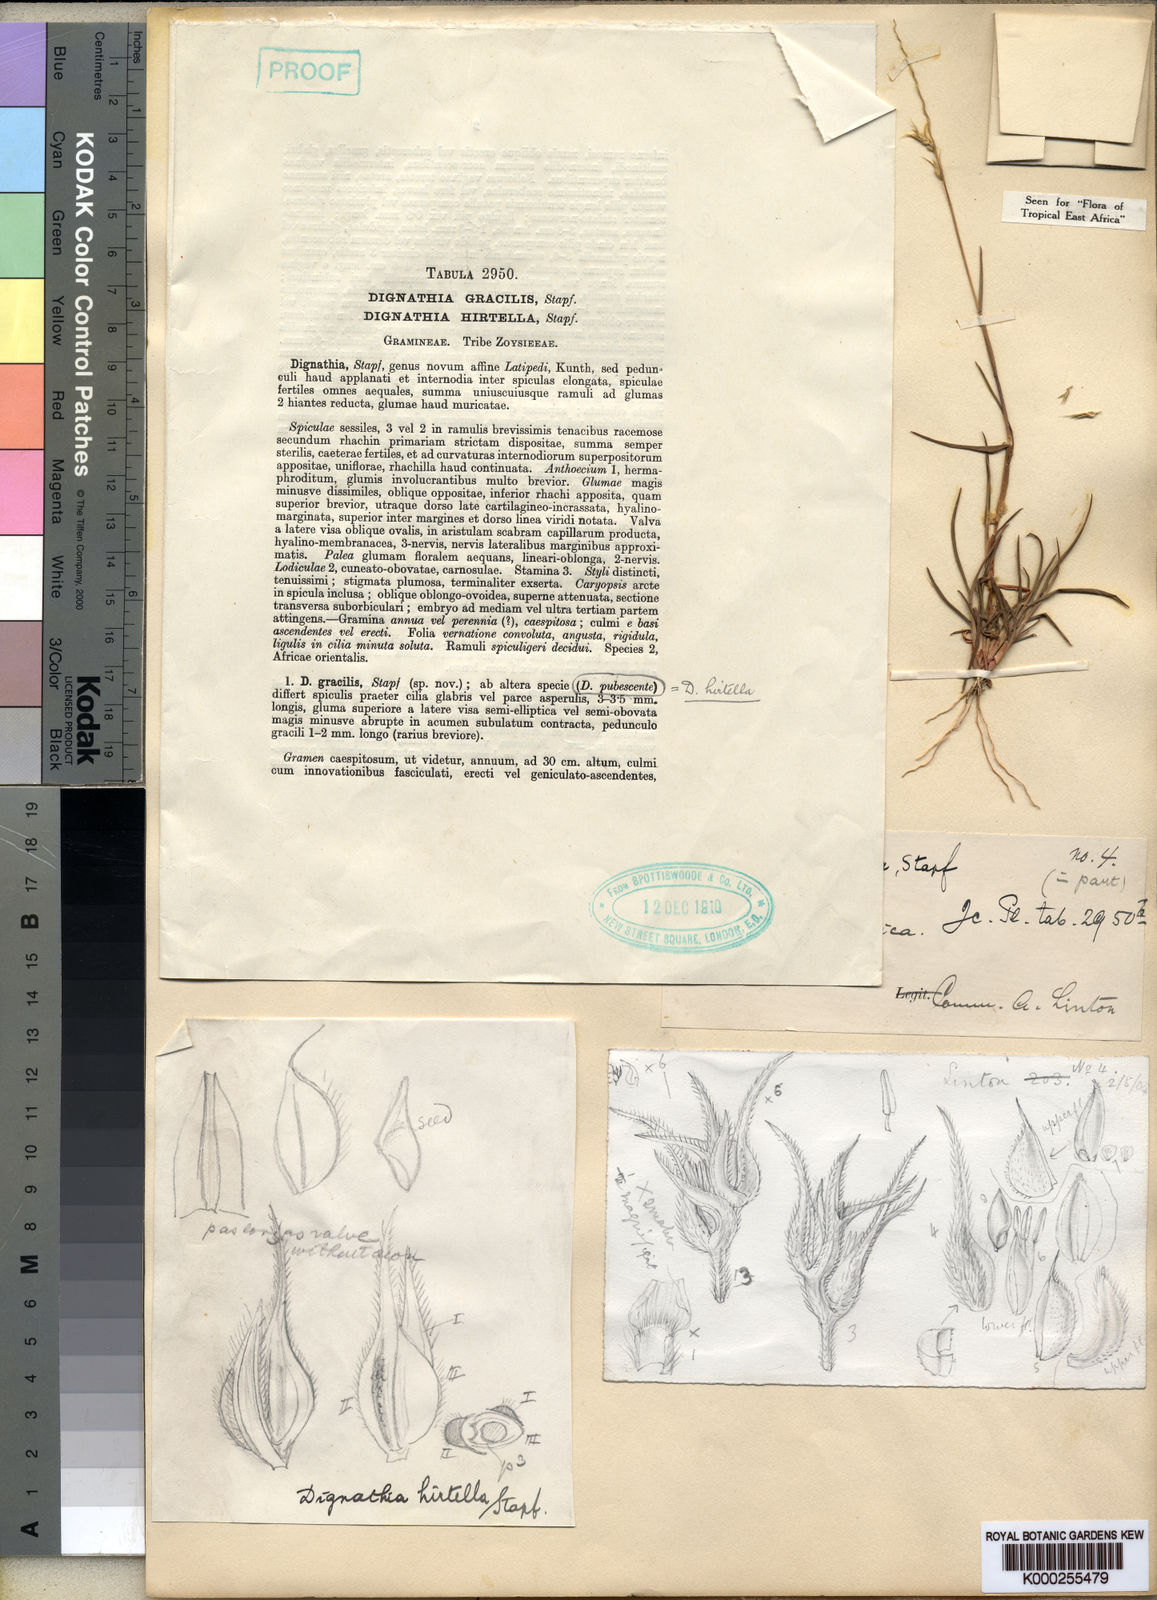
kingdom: Plantae
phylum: Tracheophyta
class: Liliopsida
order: Poales
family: Poaceae
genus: Dignathia
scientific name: Dignathia hirtella
